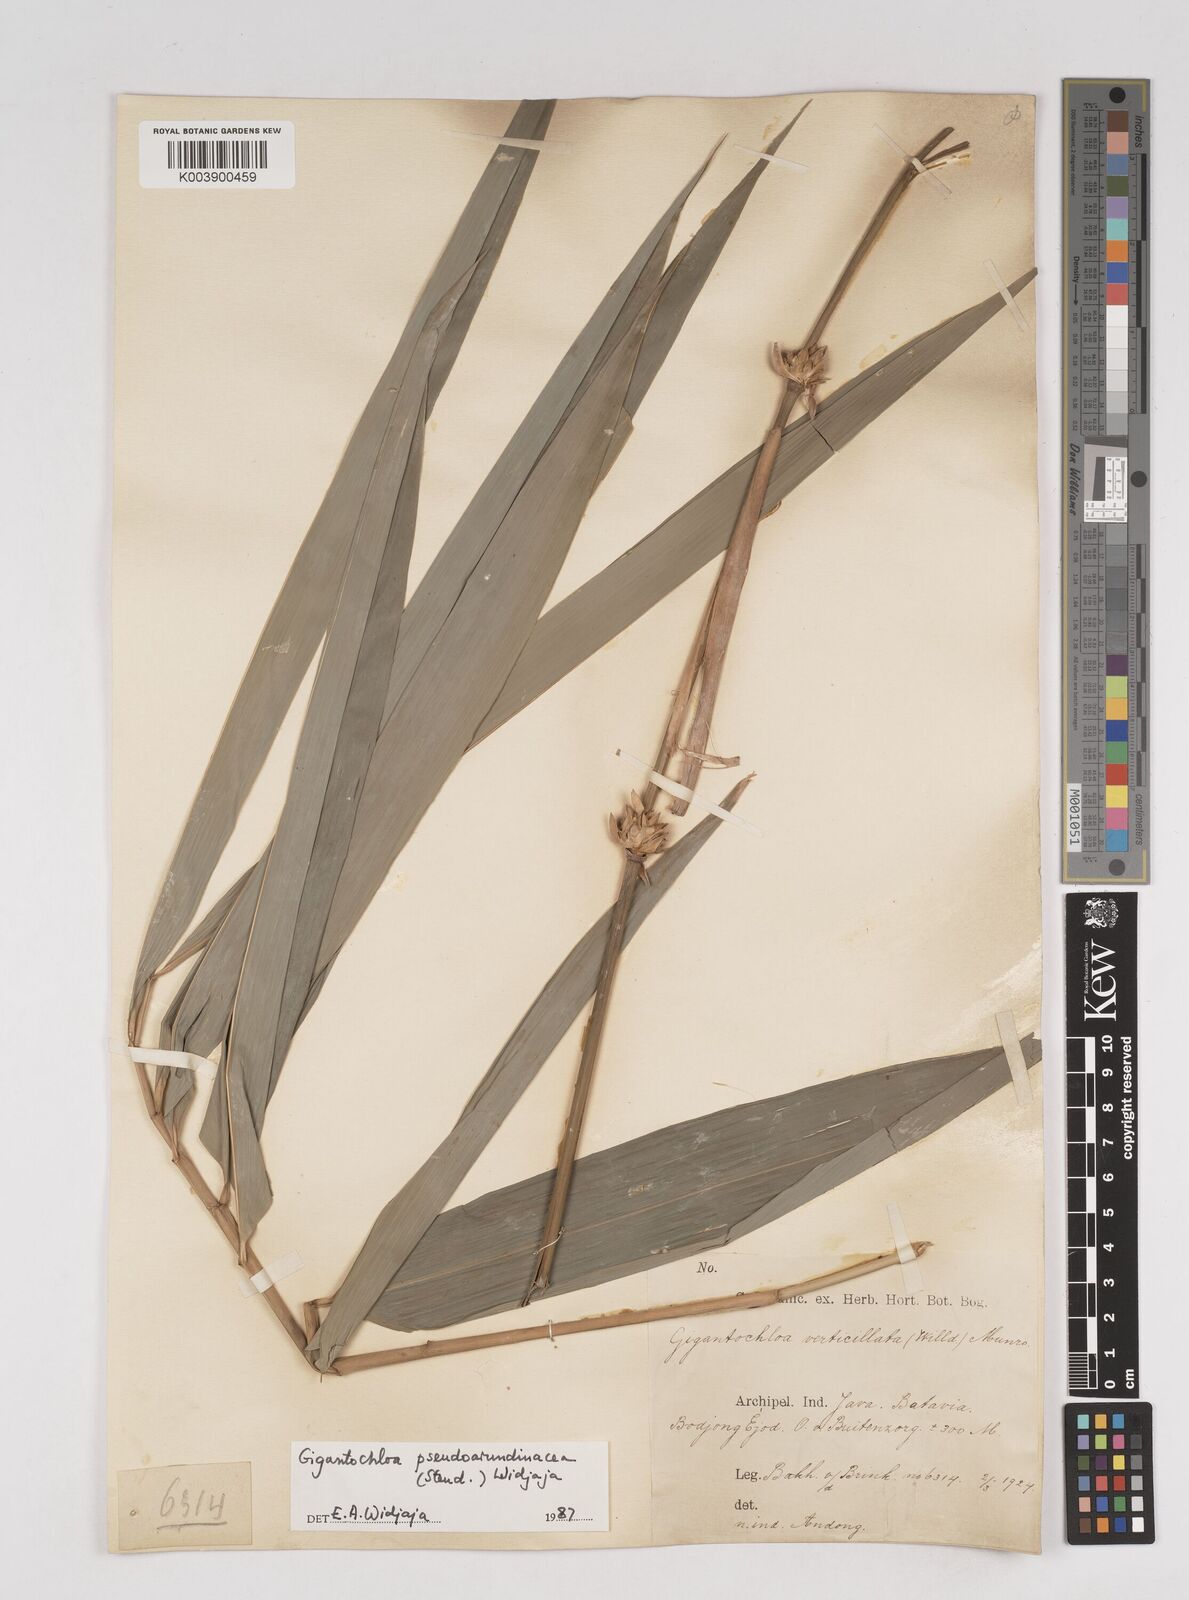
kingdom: Plantae
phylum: Tracheophyta
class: Liliopsida
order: Poales
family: Poaceae
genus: Gigantochloa
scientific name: Gigantochloa verticillata
